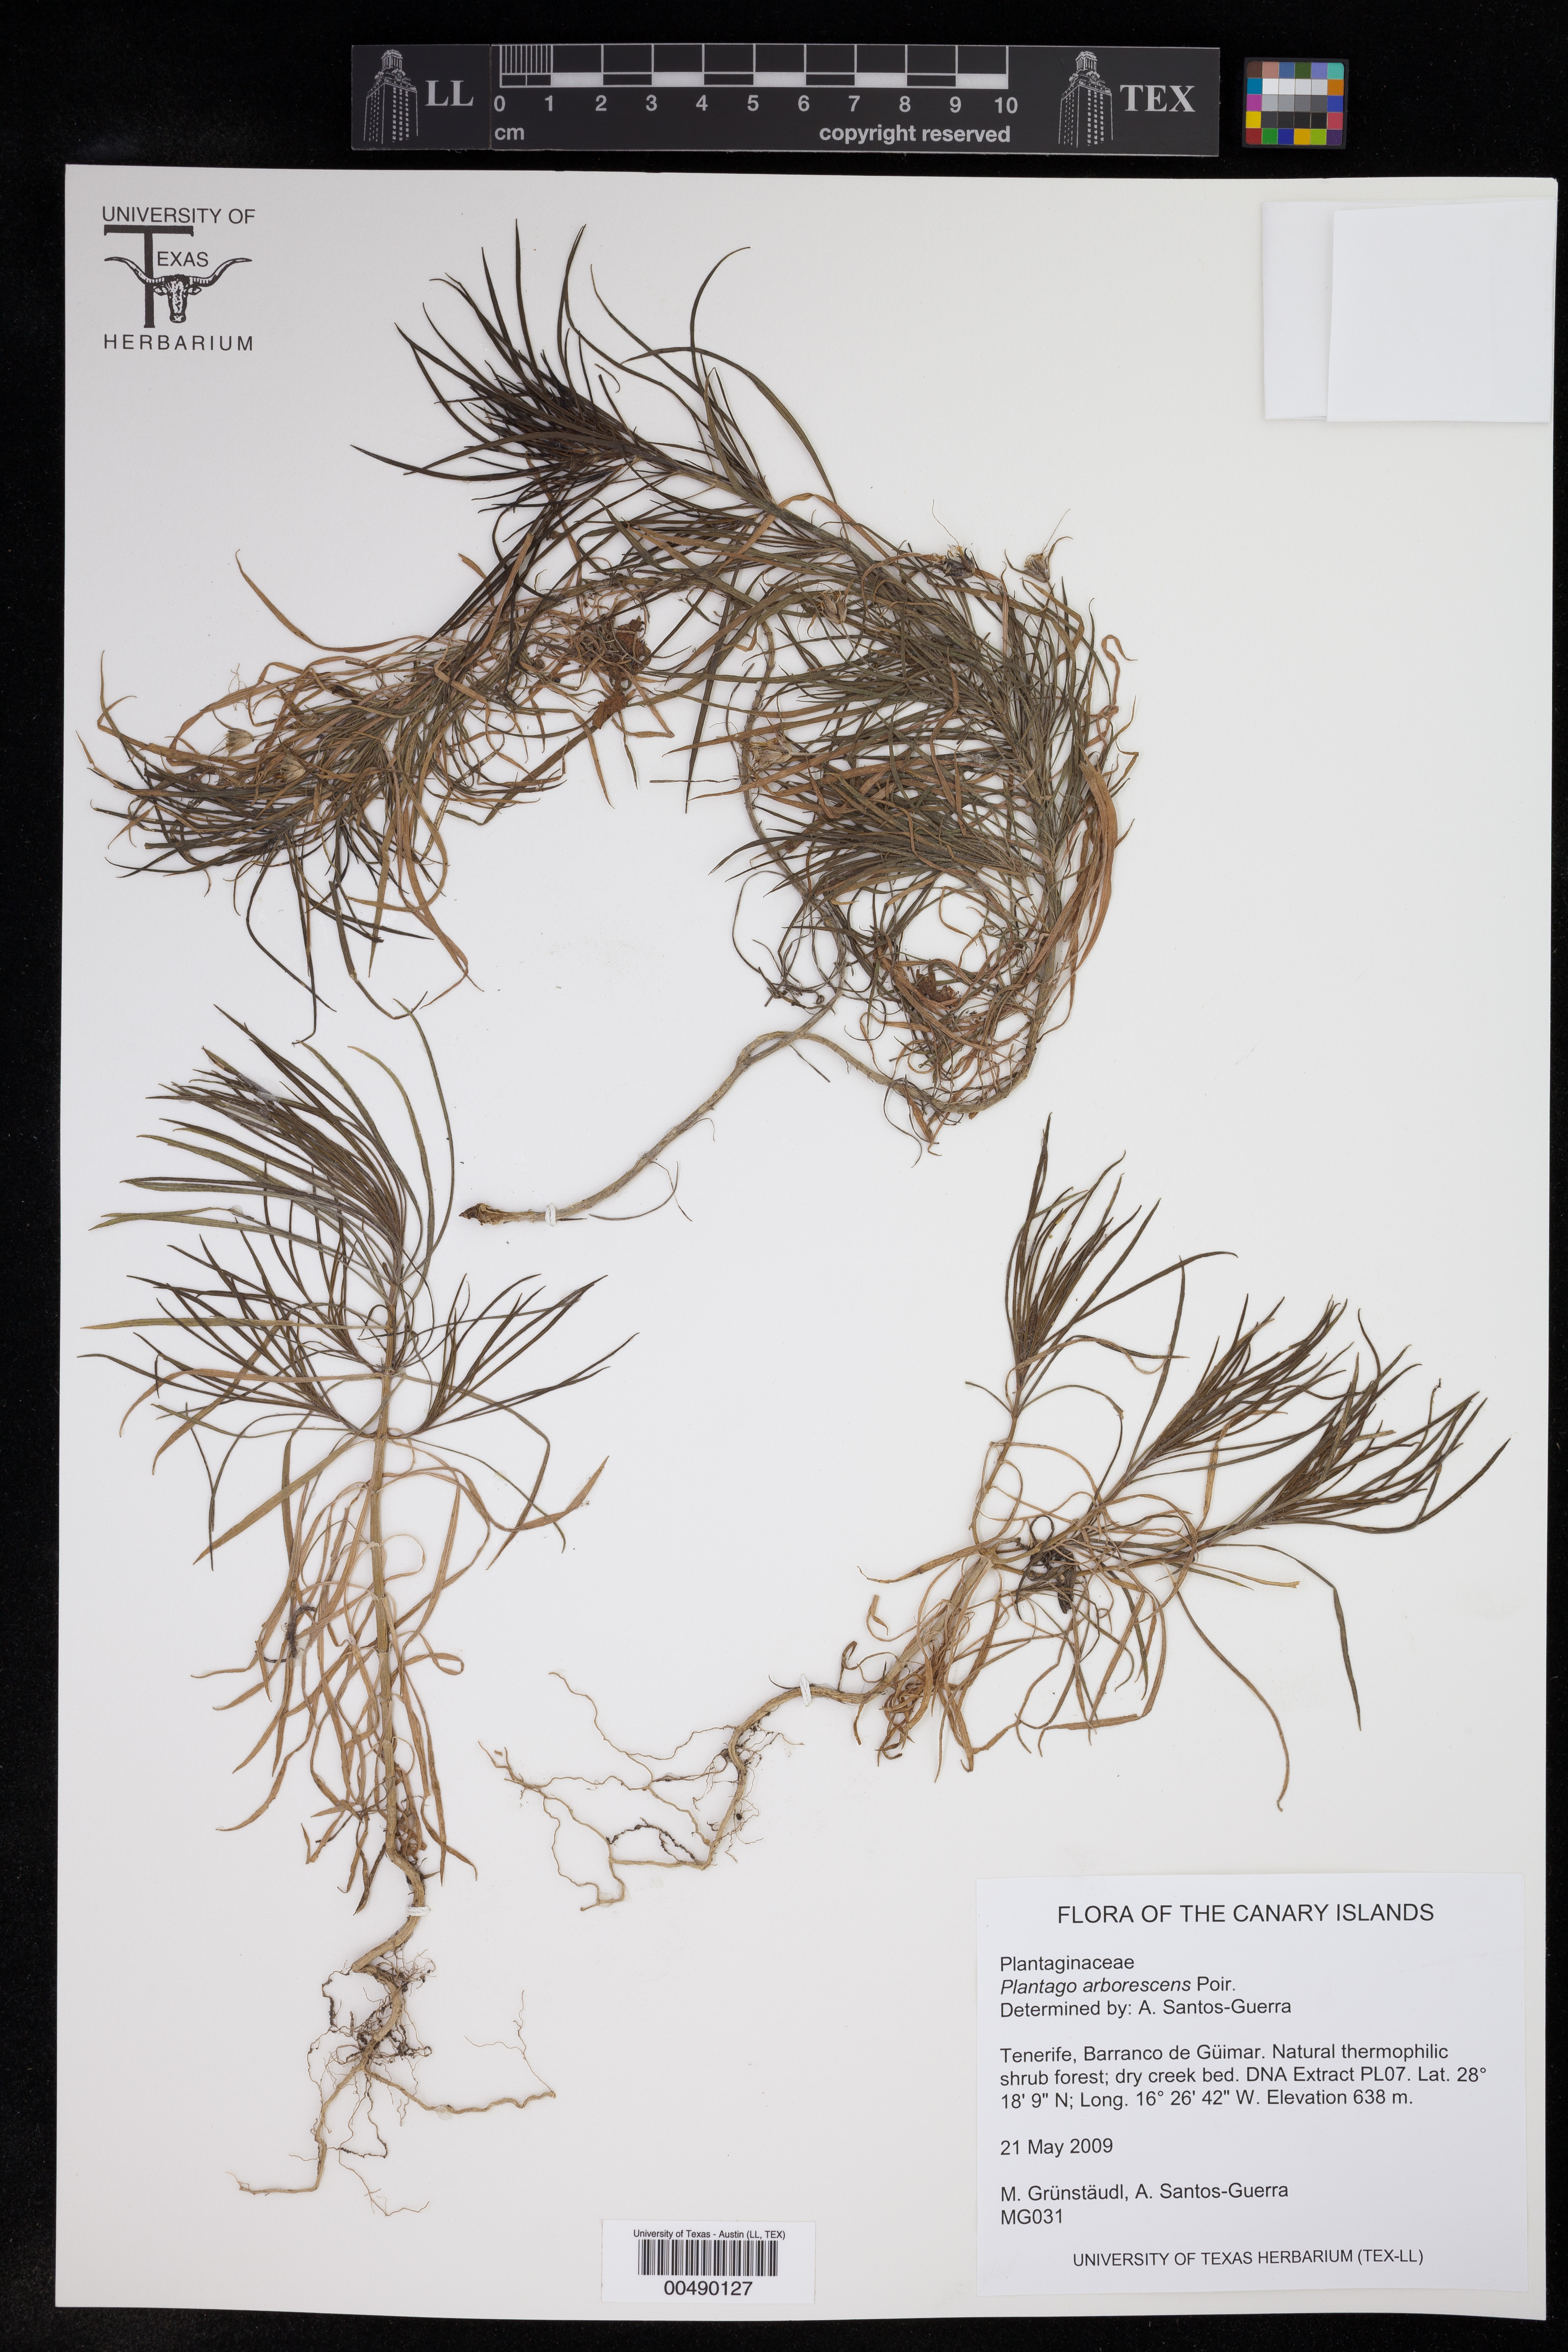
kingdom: Plantae
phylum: Tracheophyta
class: Magnoliopsida
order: Lamiales
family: Plantaginaceae
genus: Plantago
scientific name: Plantago arborescens
